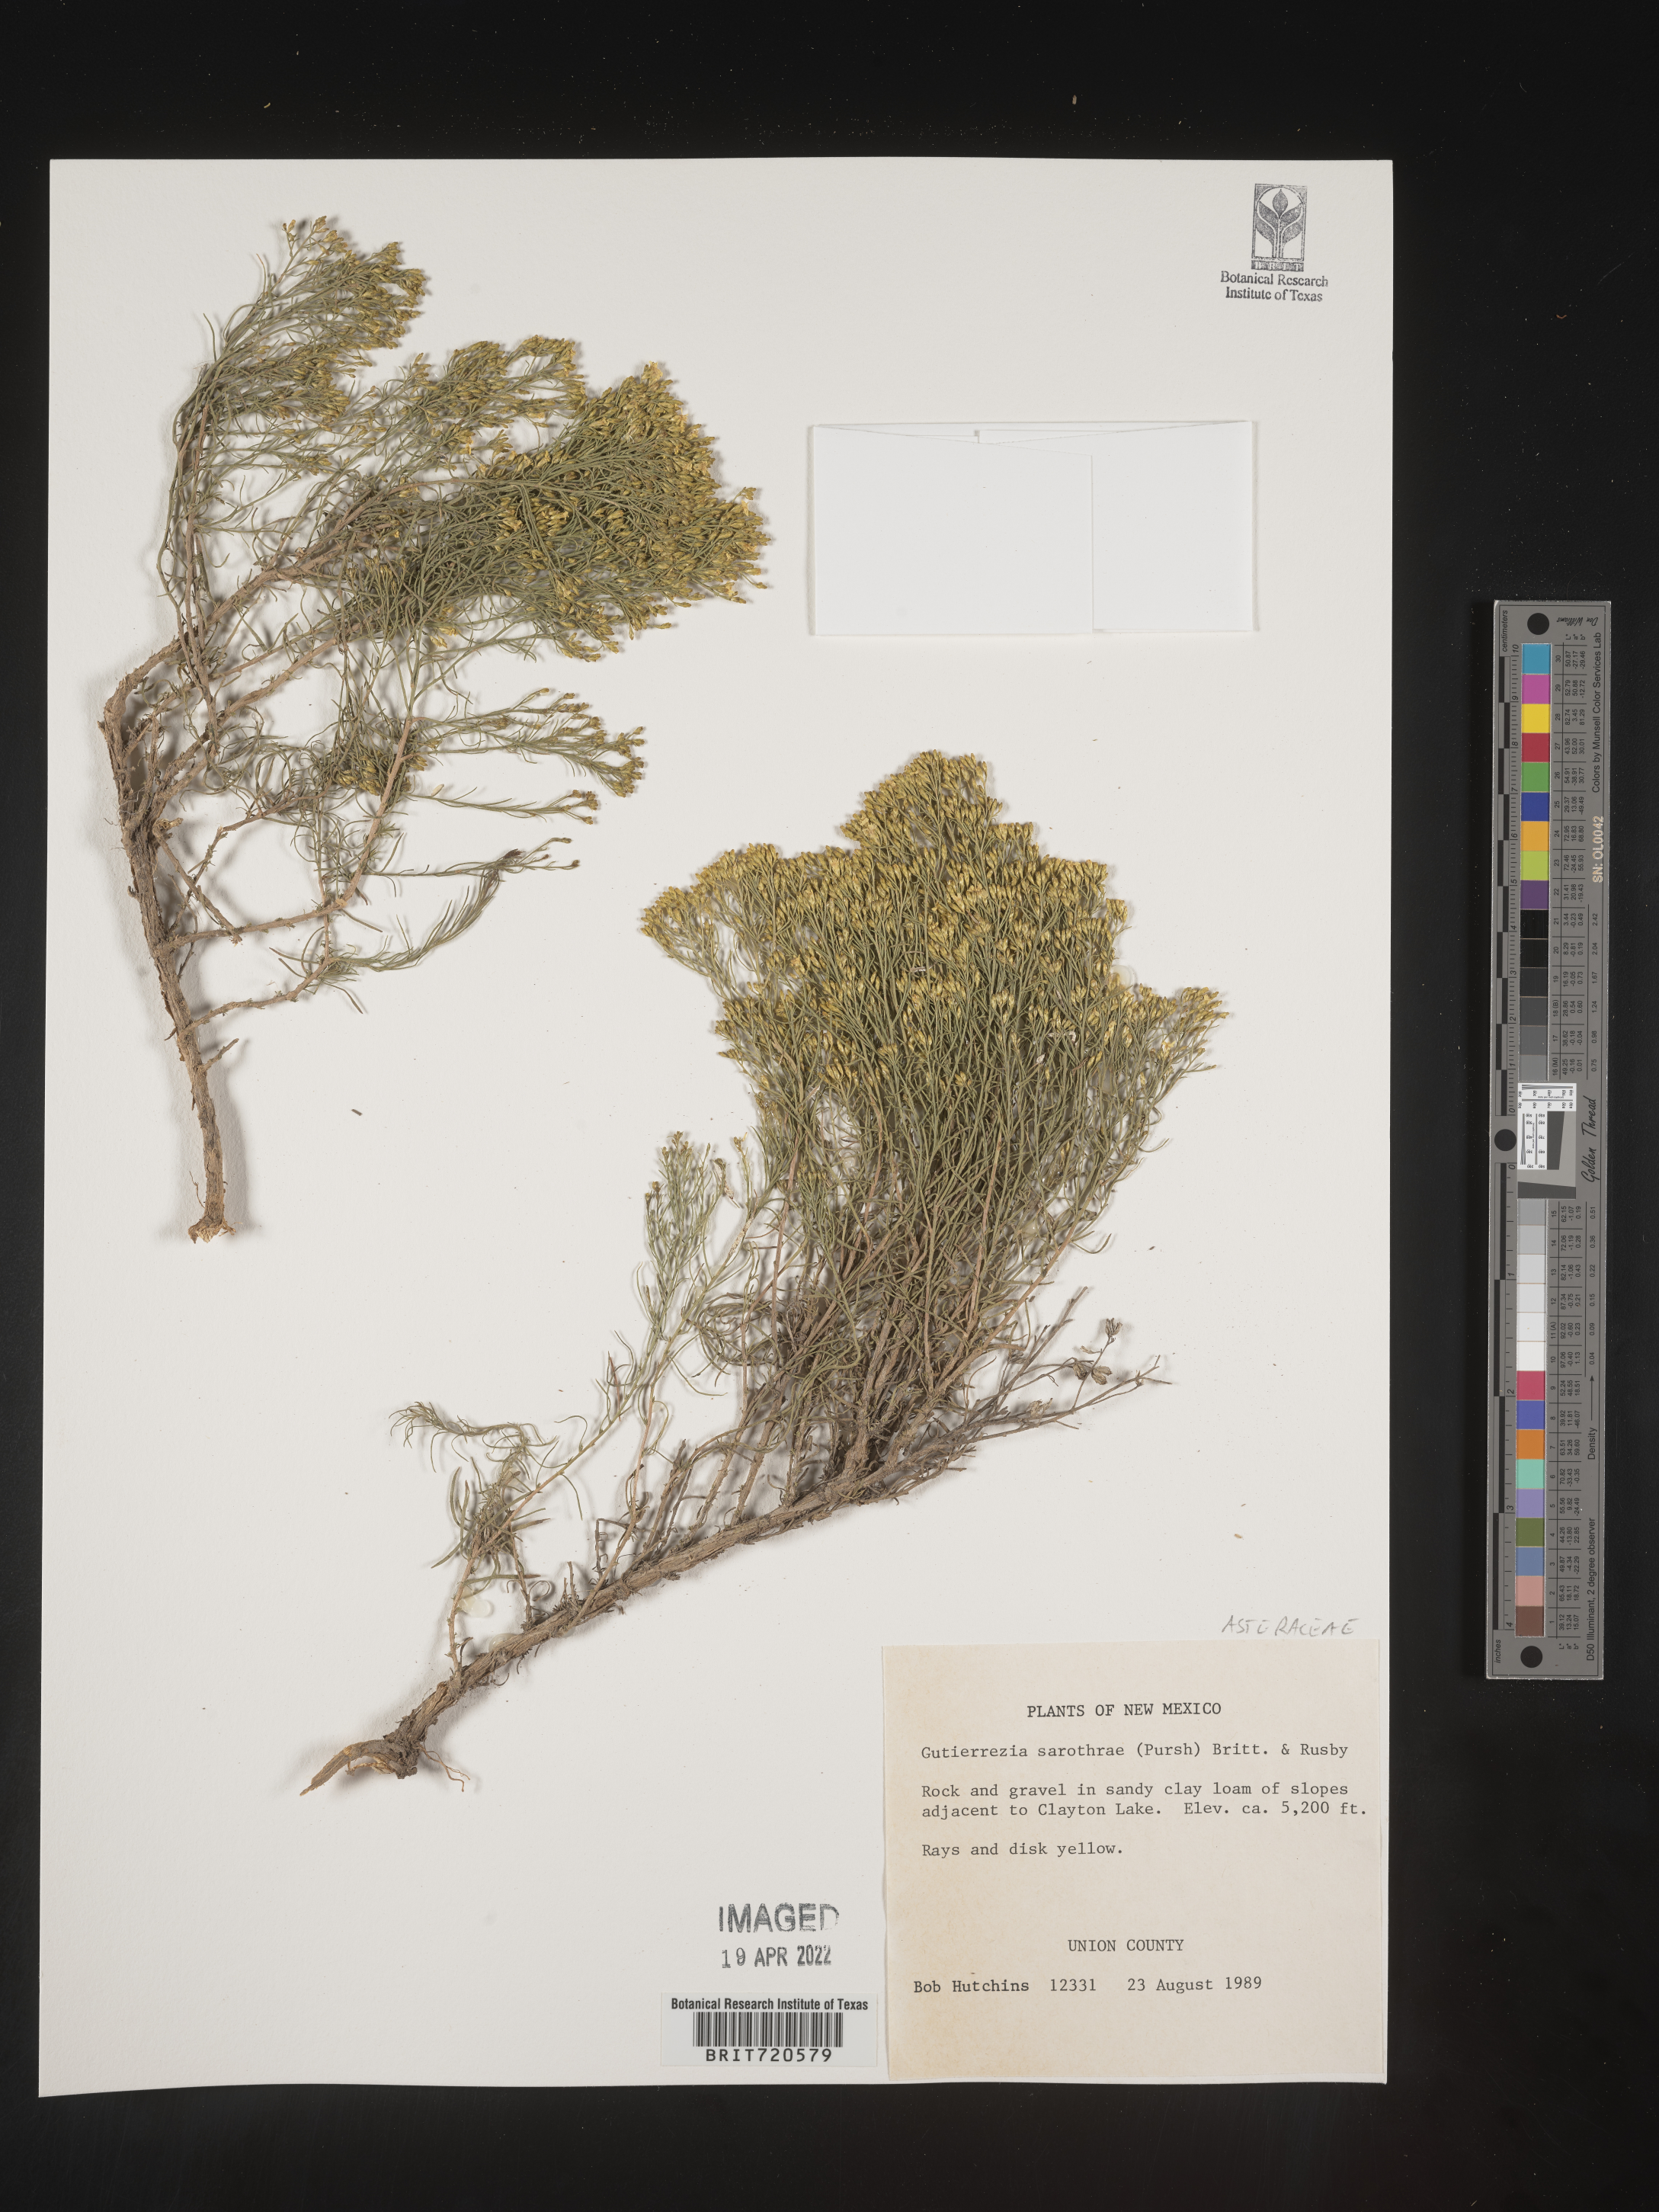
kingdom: Plantae
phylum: Tracheophyta
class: Magnoliopsida
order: Asterales
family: Asteraceae
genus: Gutierrezia
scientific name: Gutierrezia sarothrae
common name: Broom snakeweed
